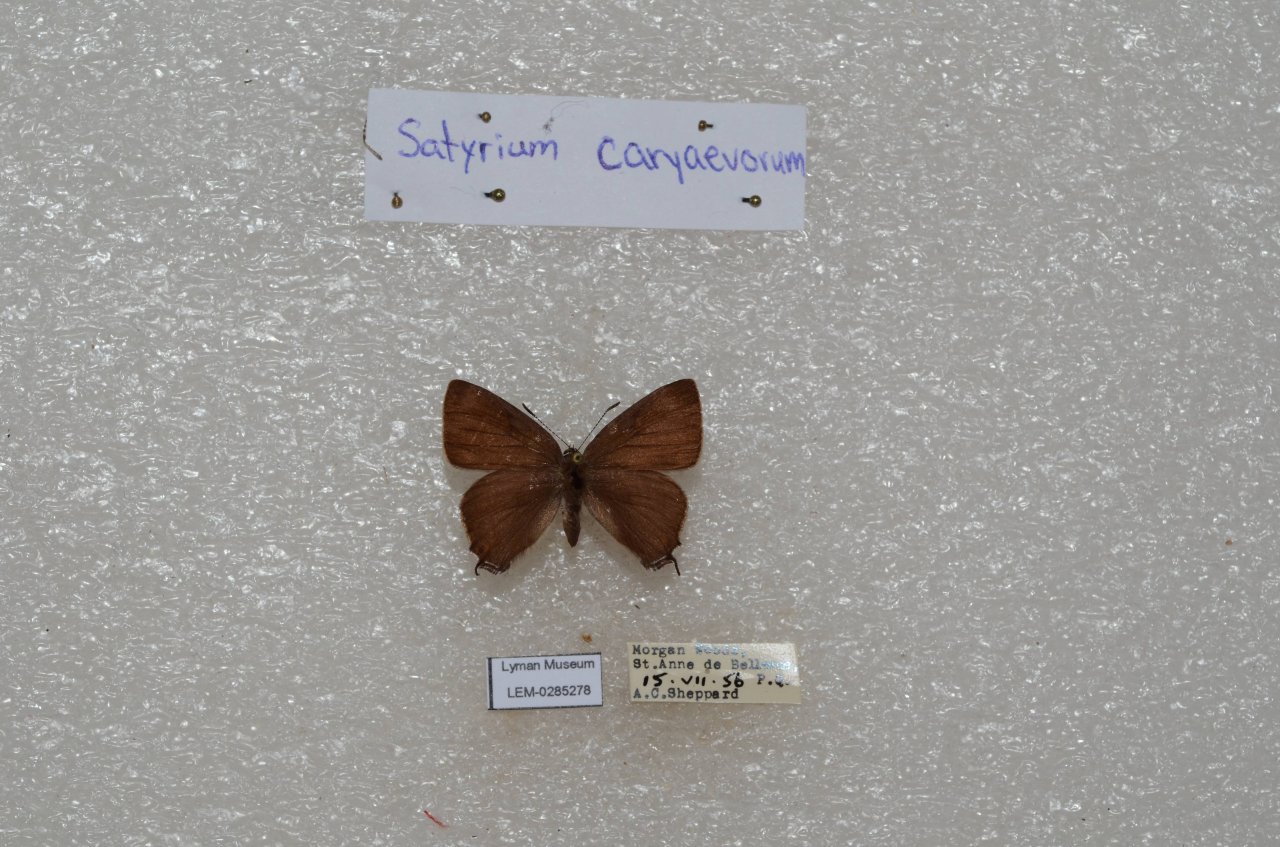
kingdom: Animalia
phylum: Arthropoda
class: Insecta
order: Lepidoptera
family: Lycaenidae
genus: Strymon
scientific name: Strymon caryaevorus
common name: Hickory Hairstreak
